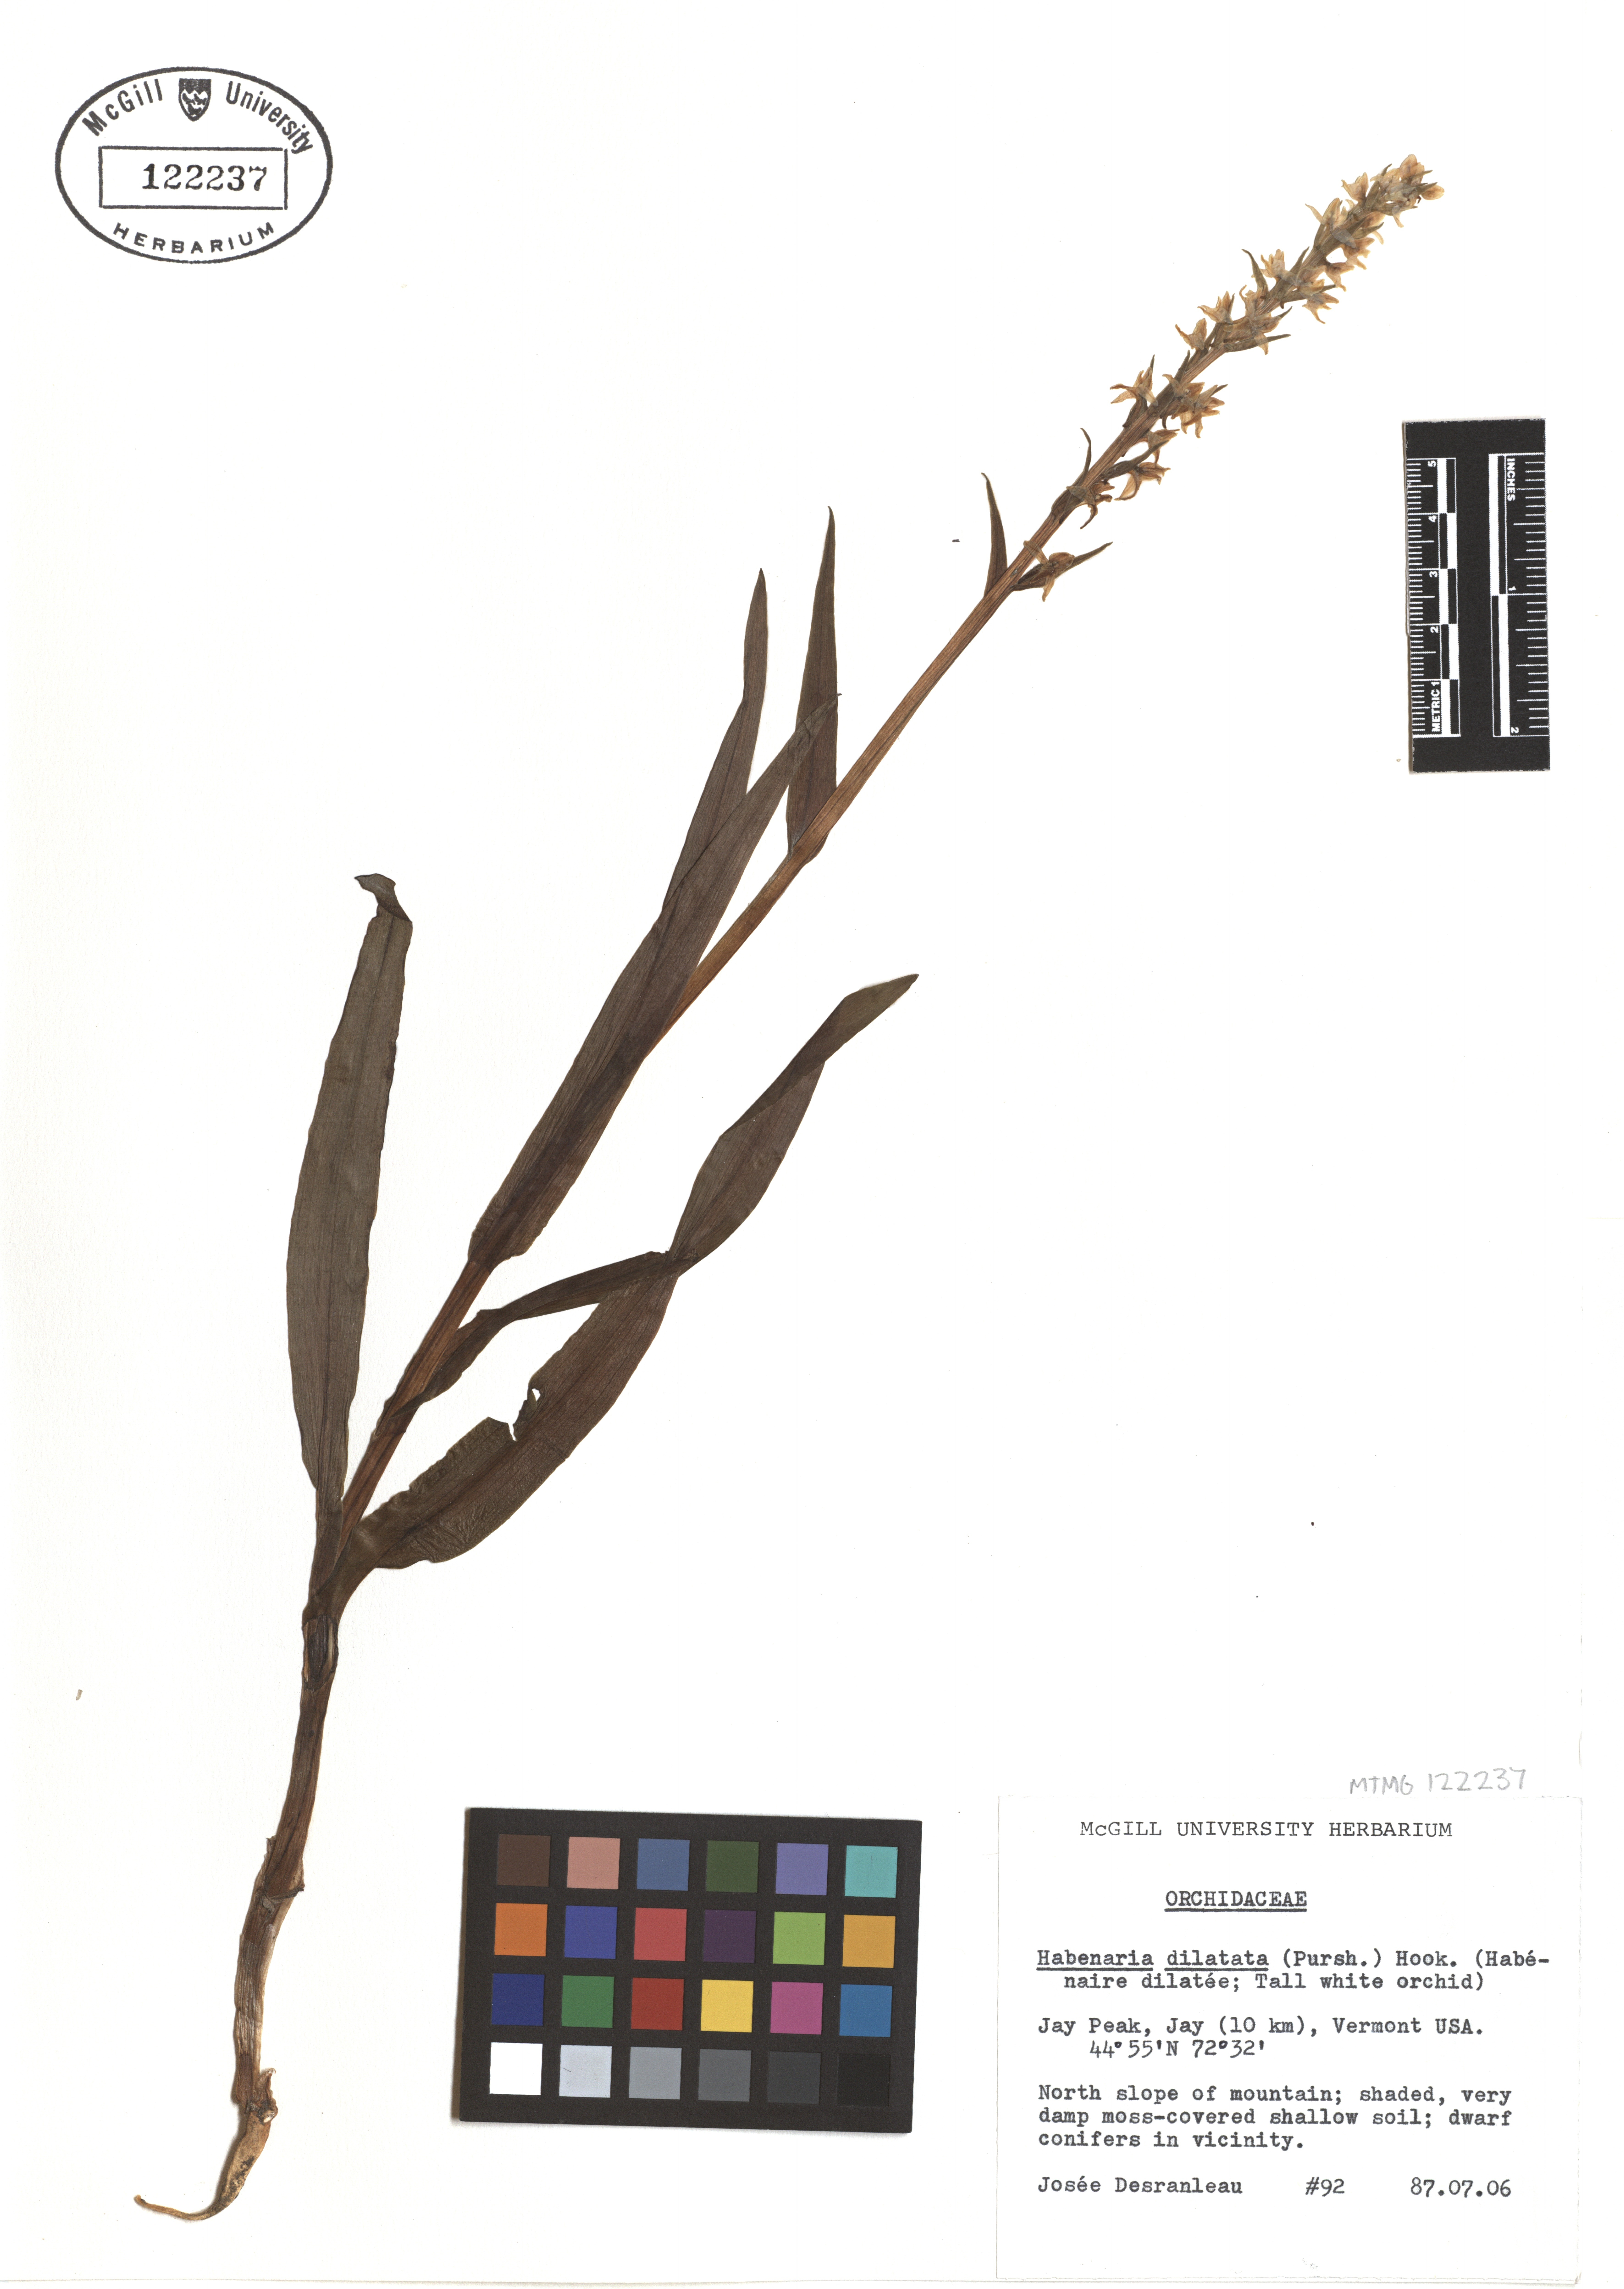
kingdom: Plantae
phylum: Tracheophyta
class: Liliopsida
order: Asparagales
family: Orchidaceae
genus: Platanthera
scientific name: Platanthera dilatata
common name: Bog candles
